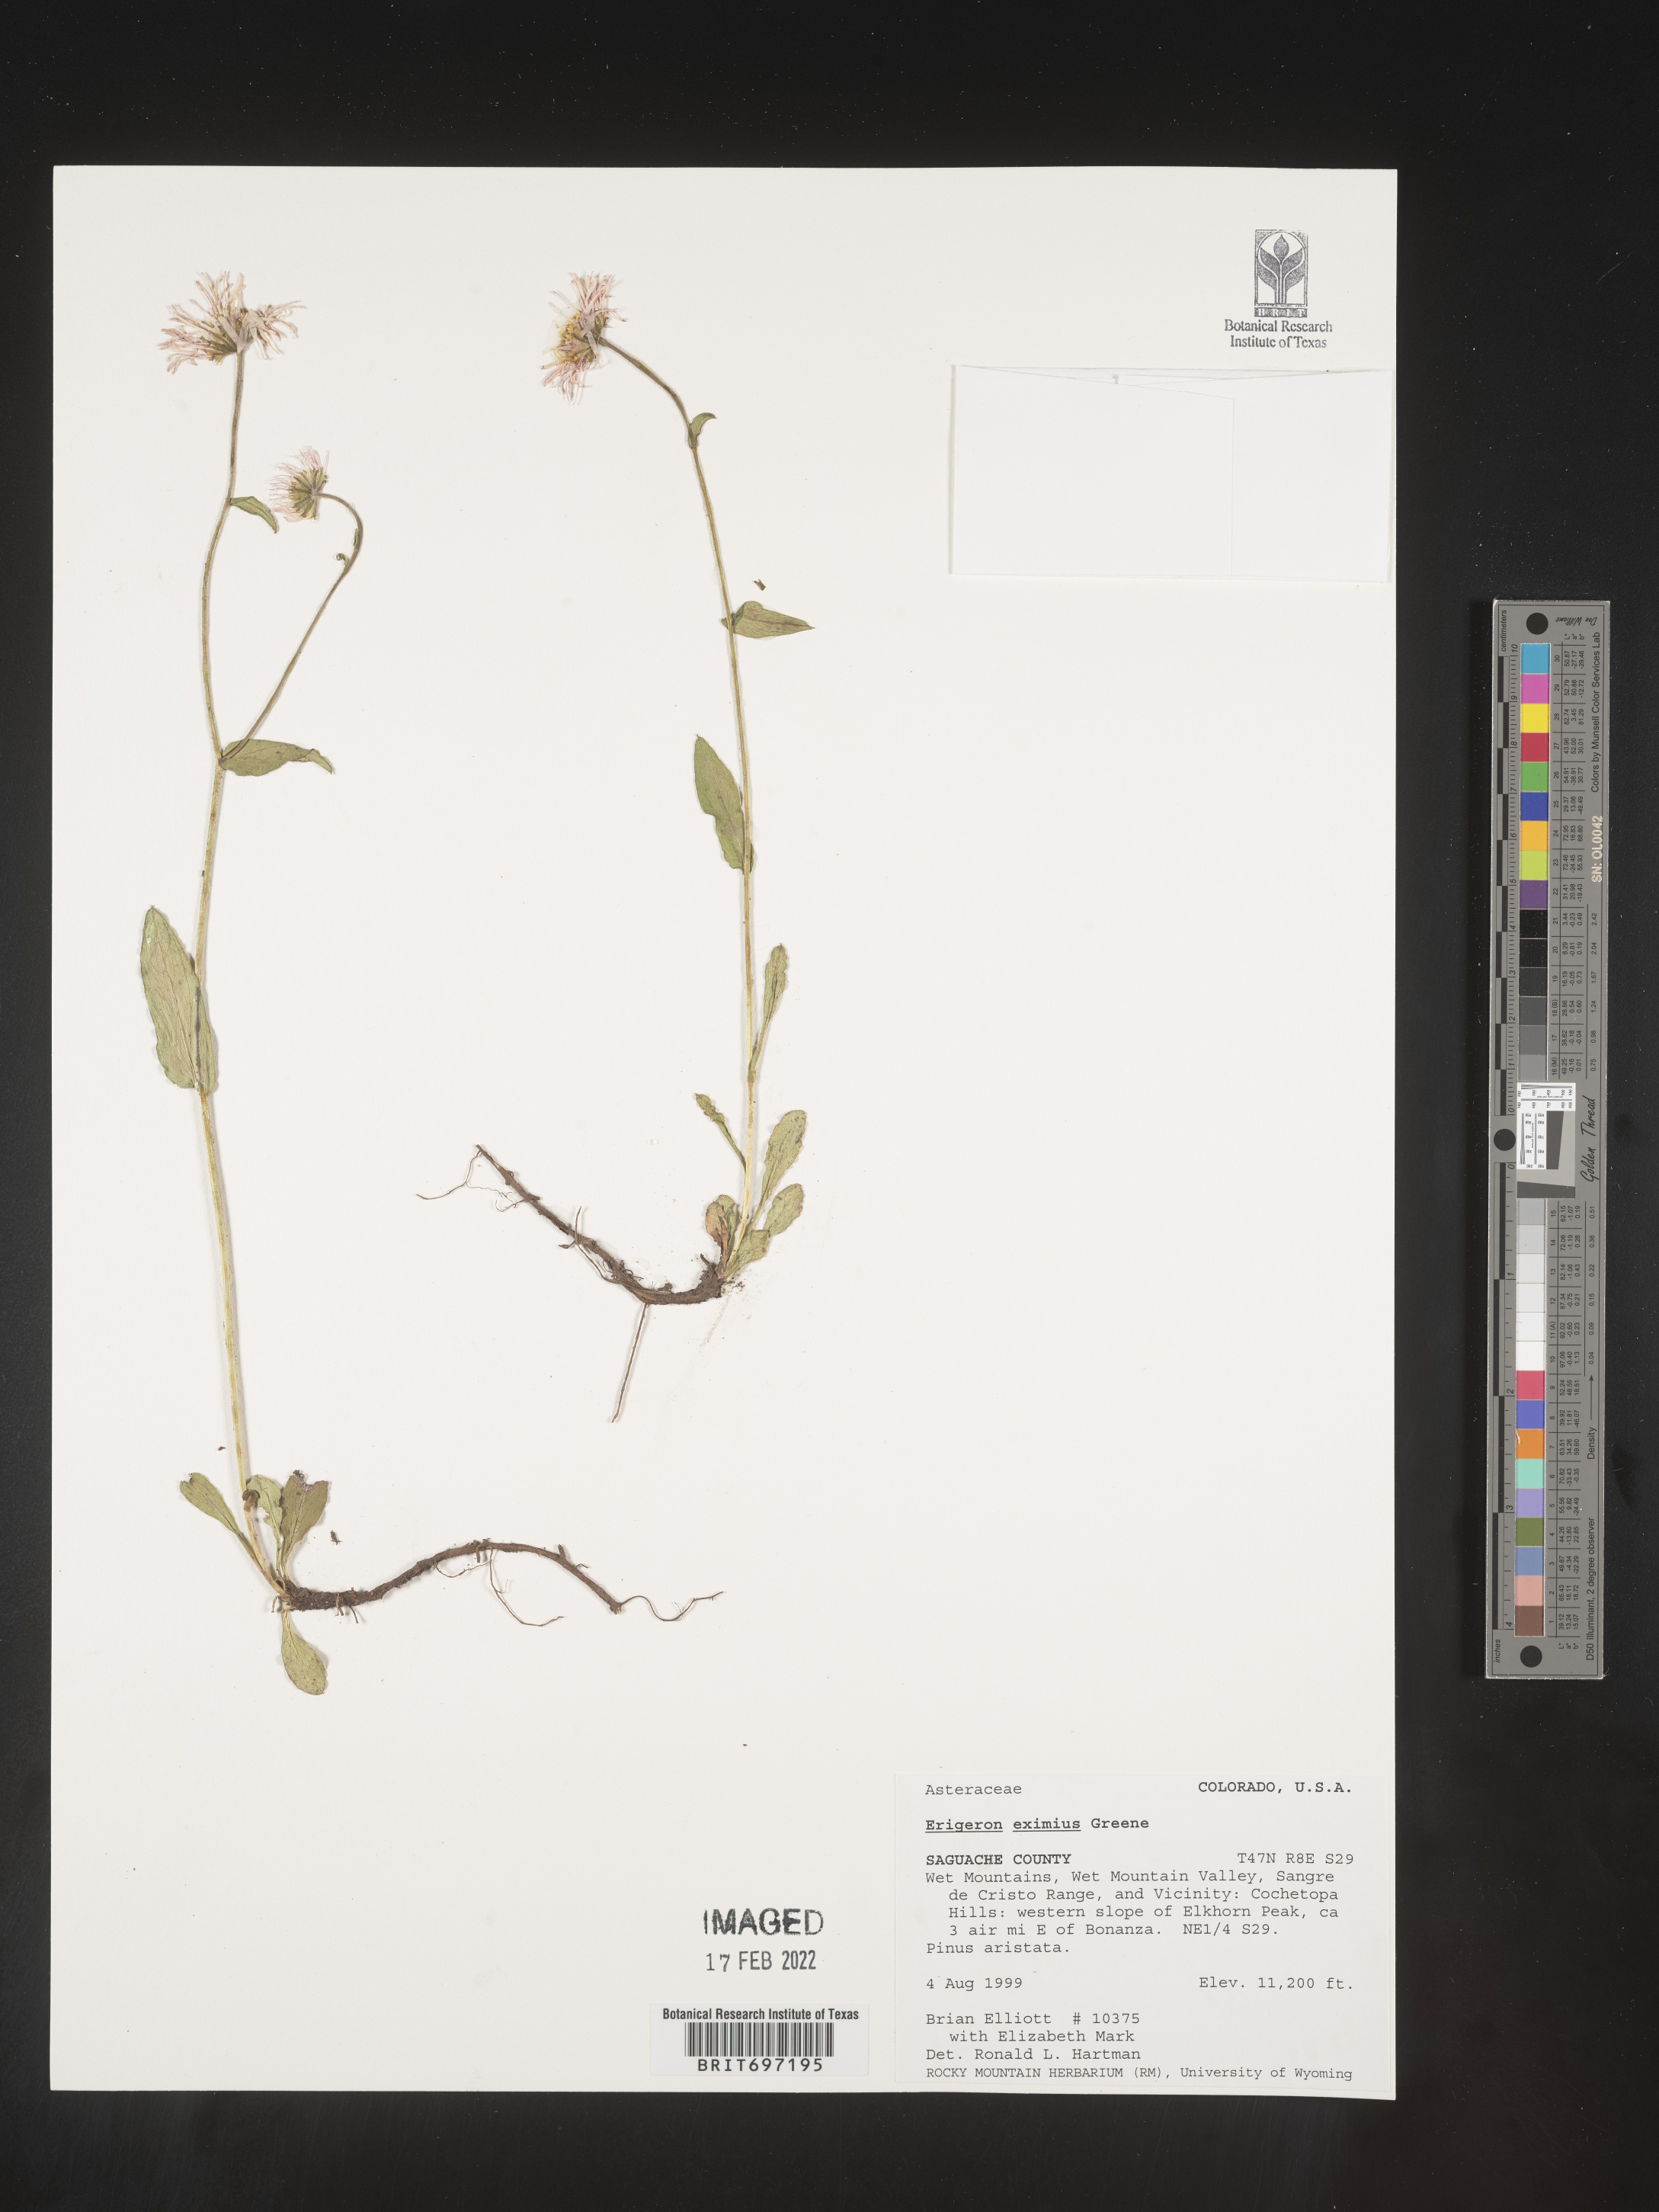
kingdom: Plantae
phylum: Tracheophyta
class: Magnoliopsida
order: Asterales
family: Asteraceae
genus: Erigeron
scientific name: Erigeron eximius
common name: Spruce-fir fleabane
